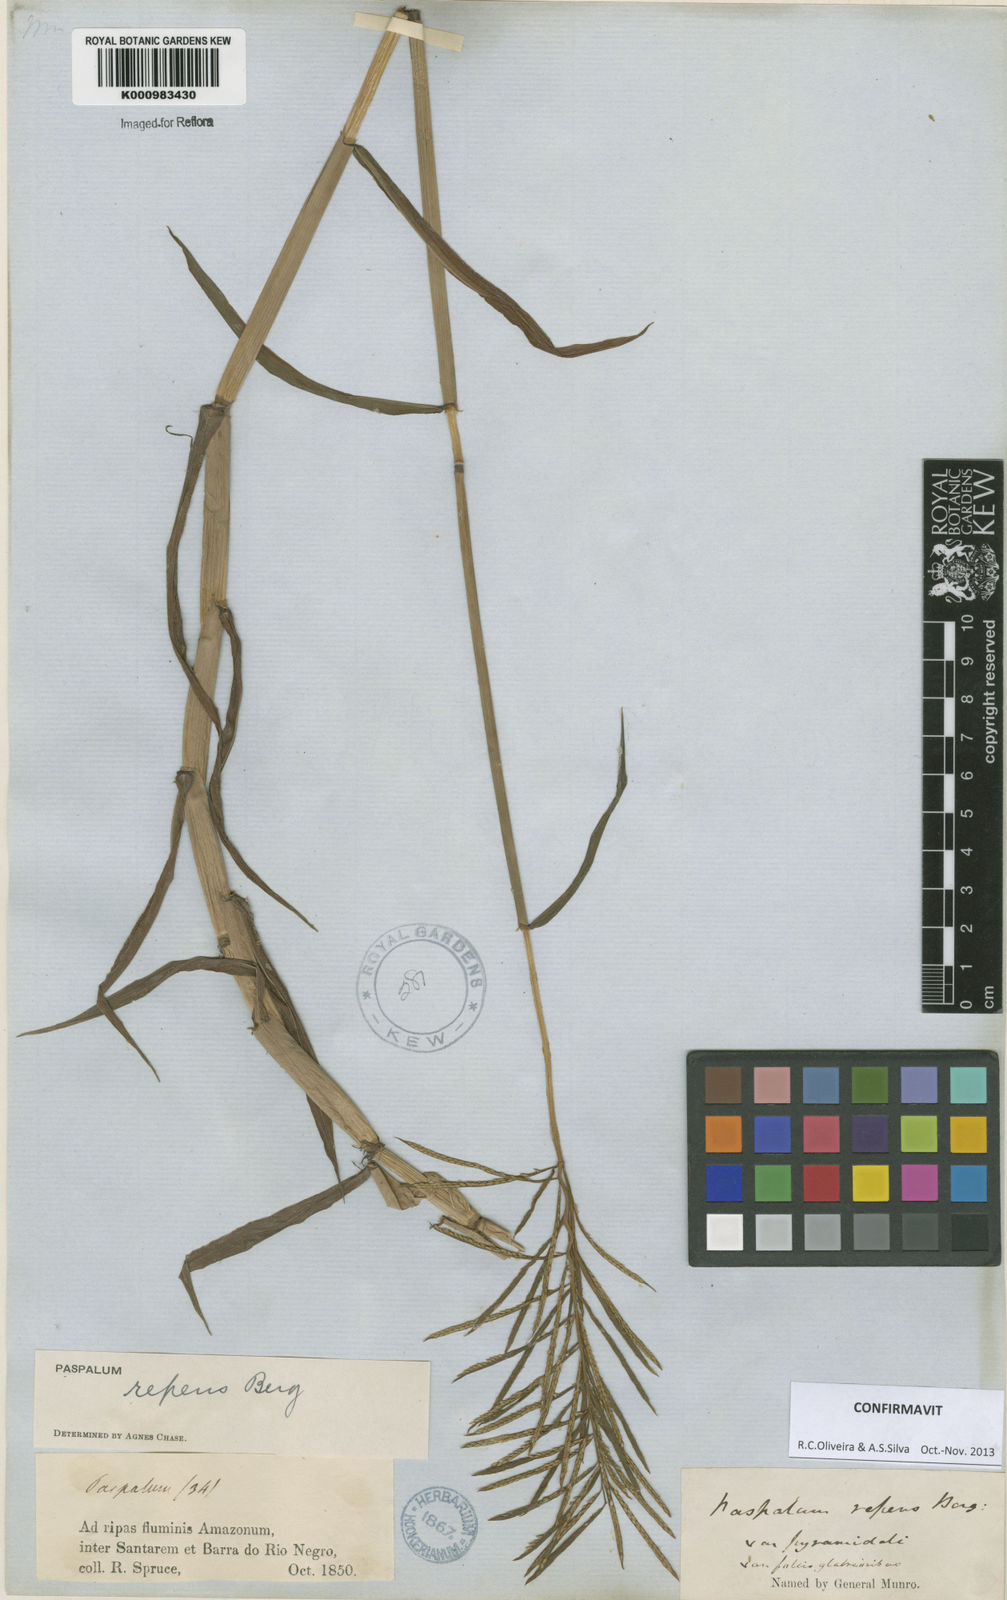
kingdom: Plantae
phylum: Tracheophyta
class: Liliopsida
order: Poales
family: Poaceae
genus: Paspalum
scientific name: Paspalum repens
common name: Water paspalum
